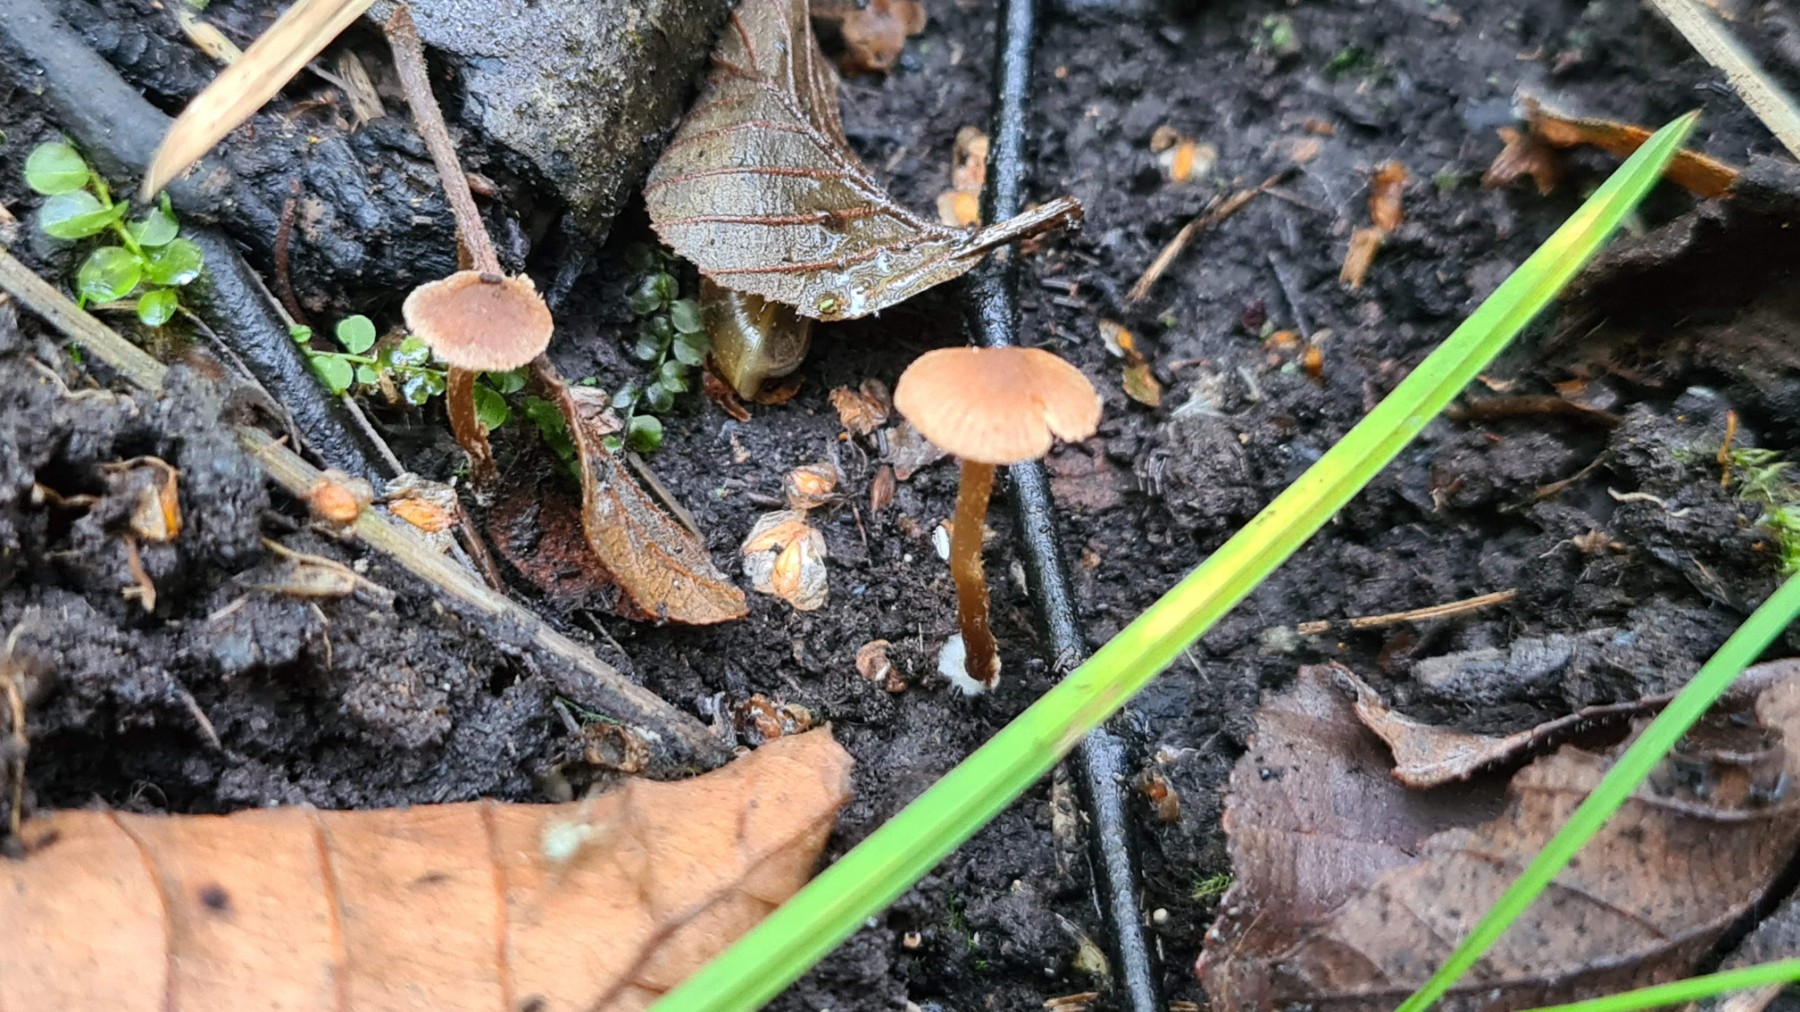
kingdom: Fungi
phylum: Basidiomycota
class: Agaricomycetes
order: Agaricales
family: Hymenogastraceae
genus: Naucoria
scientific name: Naucoria
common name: knaphat
